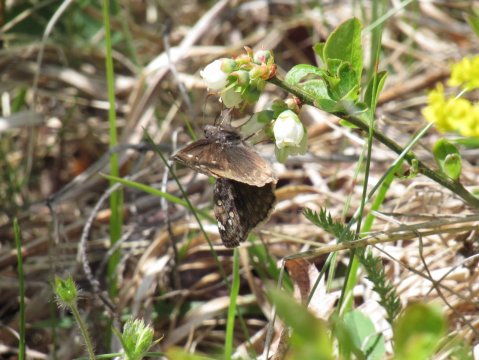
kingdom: Animalia
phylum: Arthropoda
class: Insecta
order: Lepidoptera
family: Hesperiidae
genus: Gesta
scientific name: Gesta
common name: Juvenal's Duskywing
